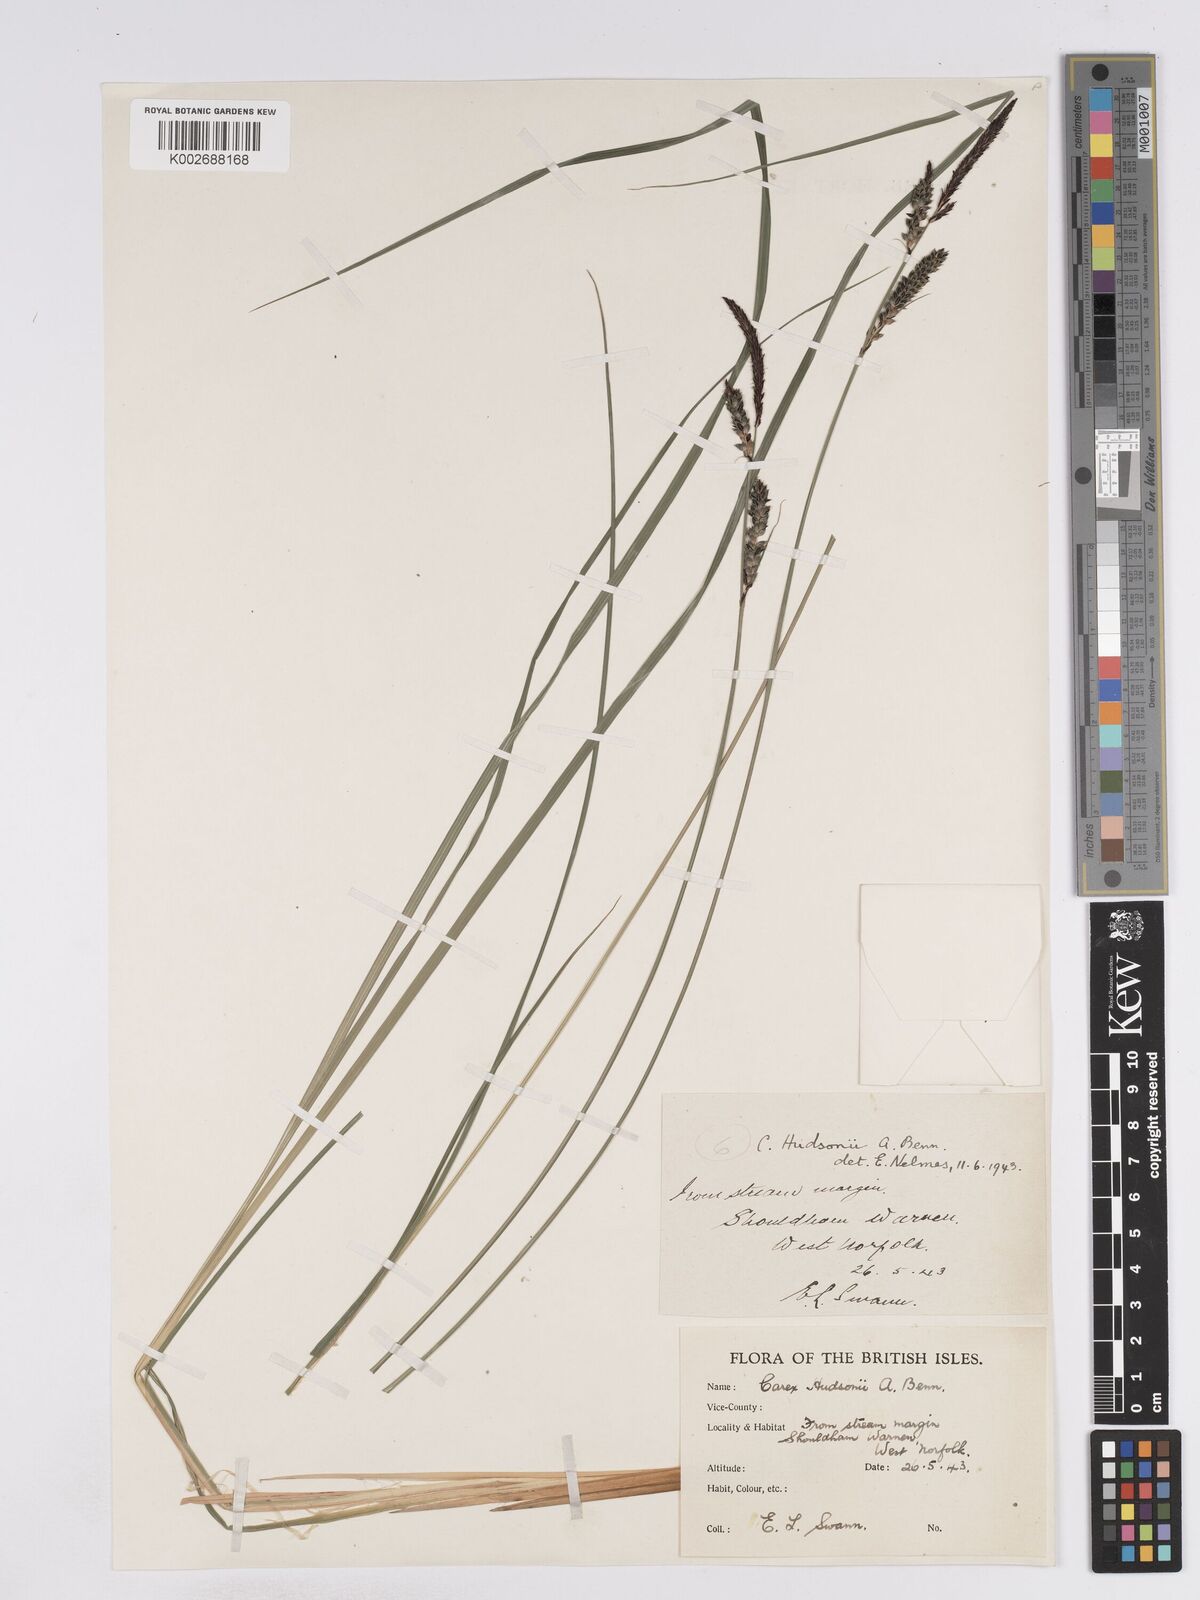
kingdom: Plantae
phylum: Tracheophyta
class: Liliopsida
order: Poales
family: Cyperaceae
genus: Carex
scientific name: Carex elata
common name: Tufted sedge
